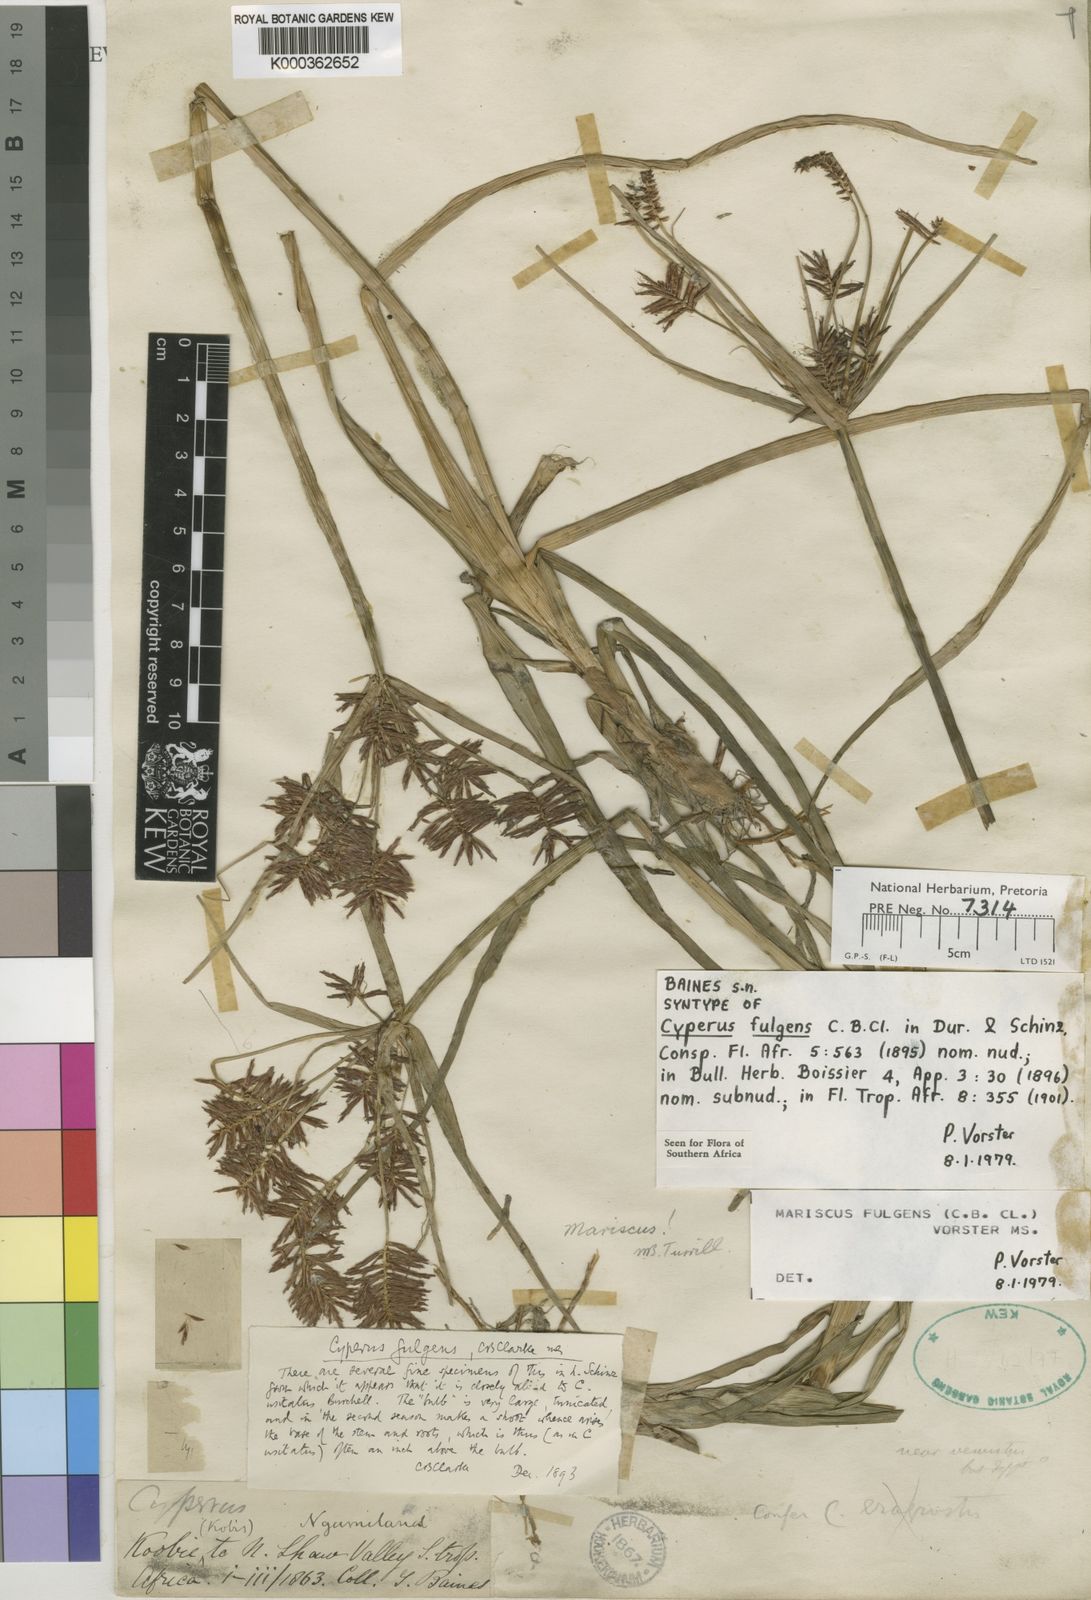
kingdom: Plantae
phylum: Tracheophyta
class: Liliopsida
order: Poales
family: Cyperaceae
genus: Cyperus
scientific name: Cyperus callistus
